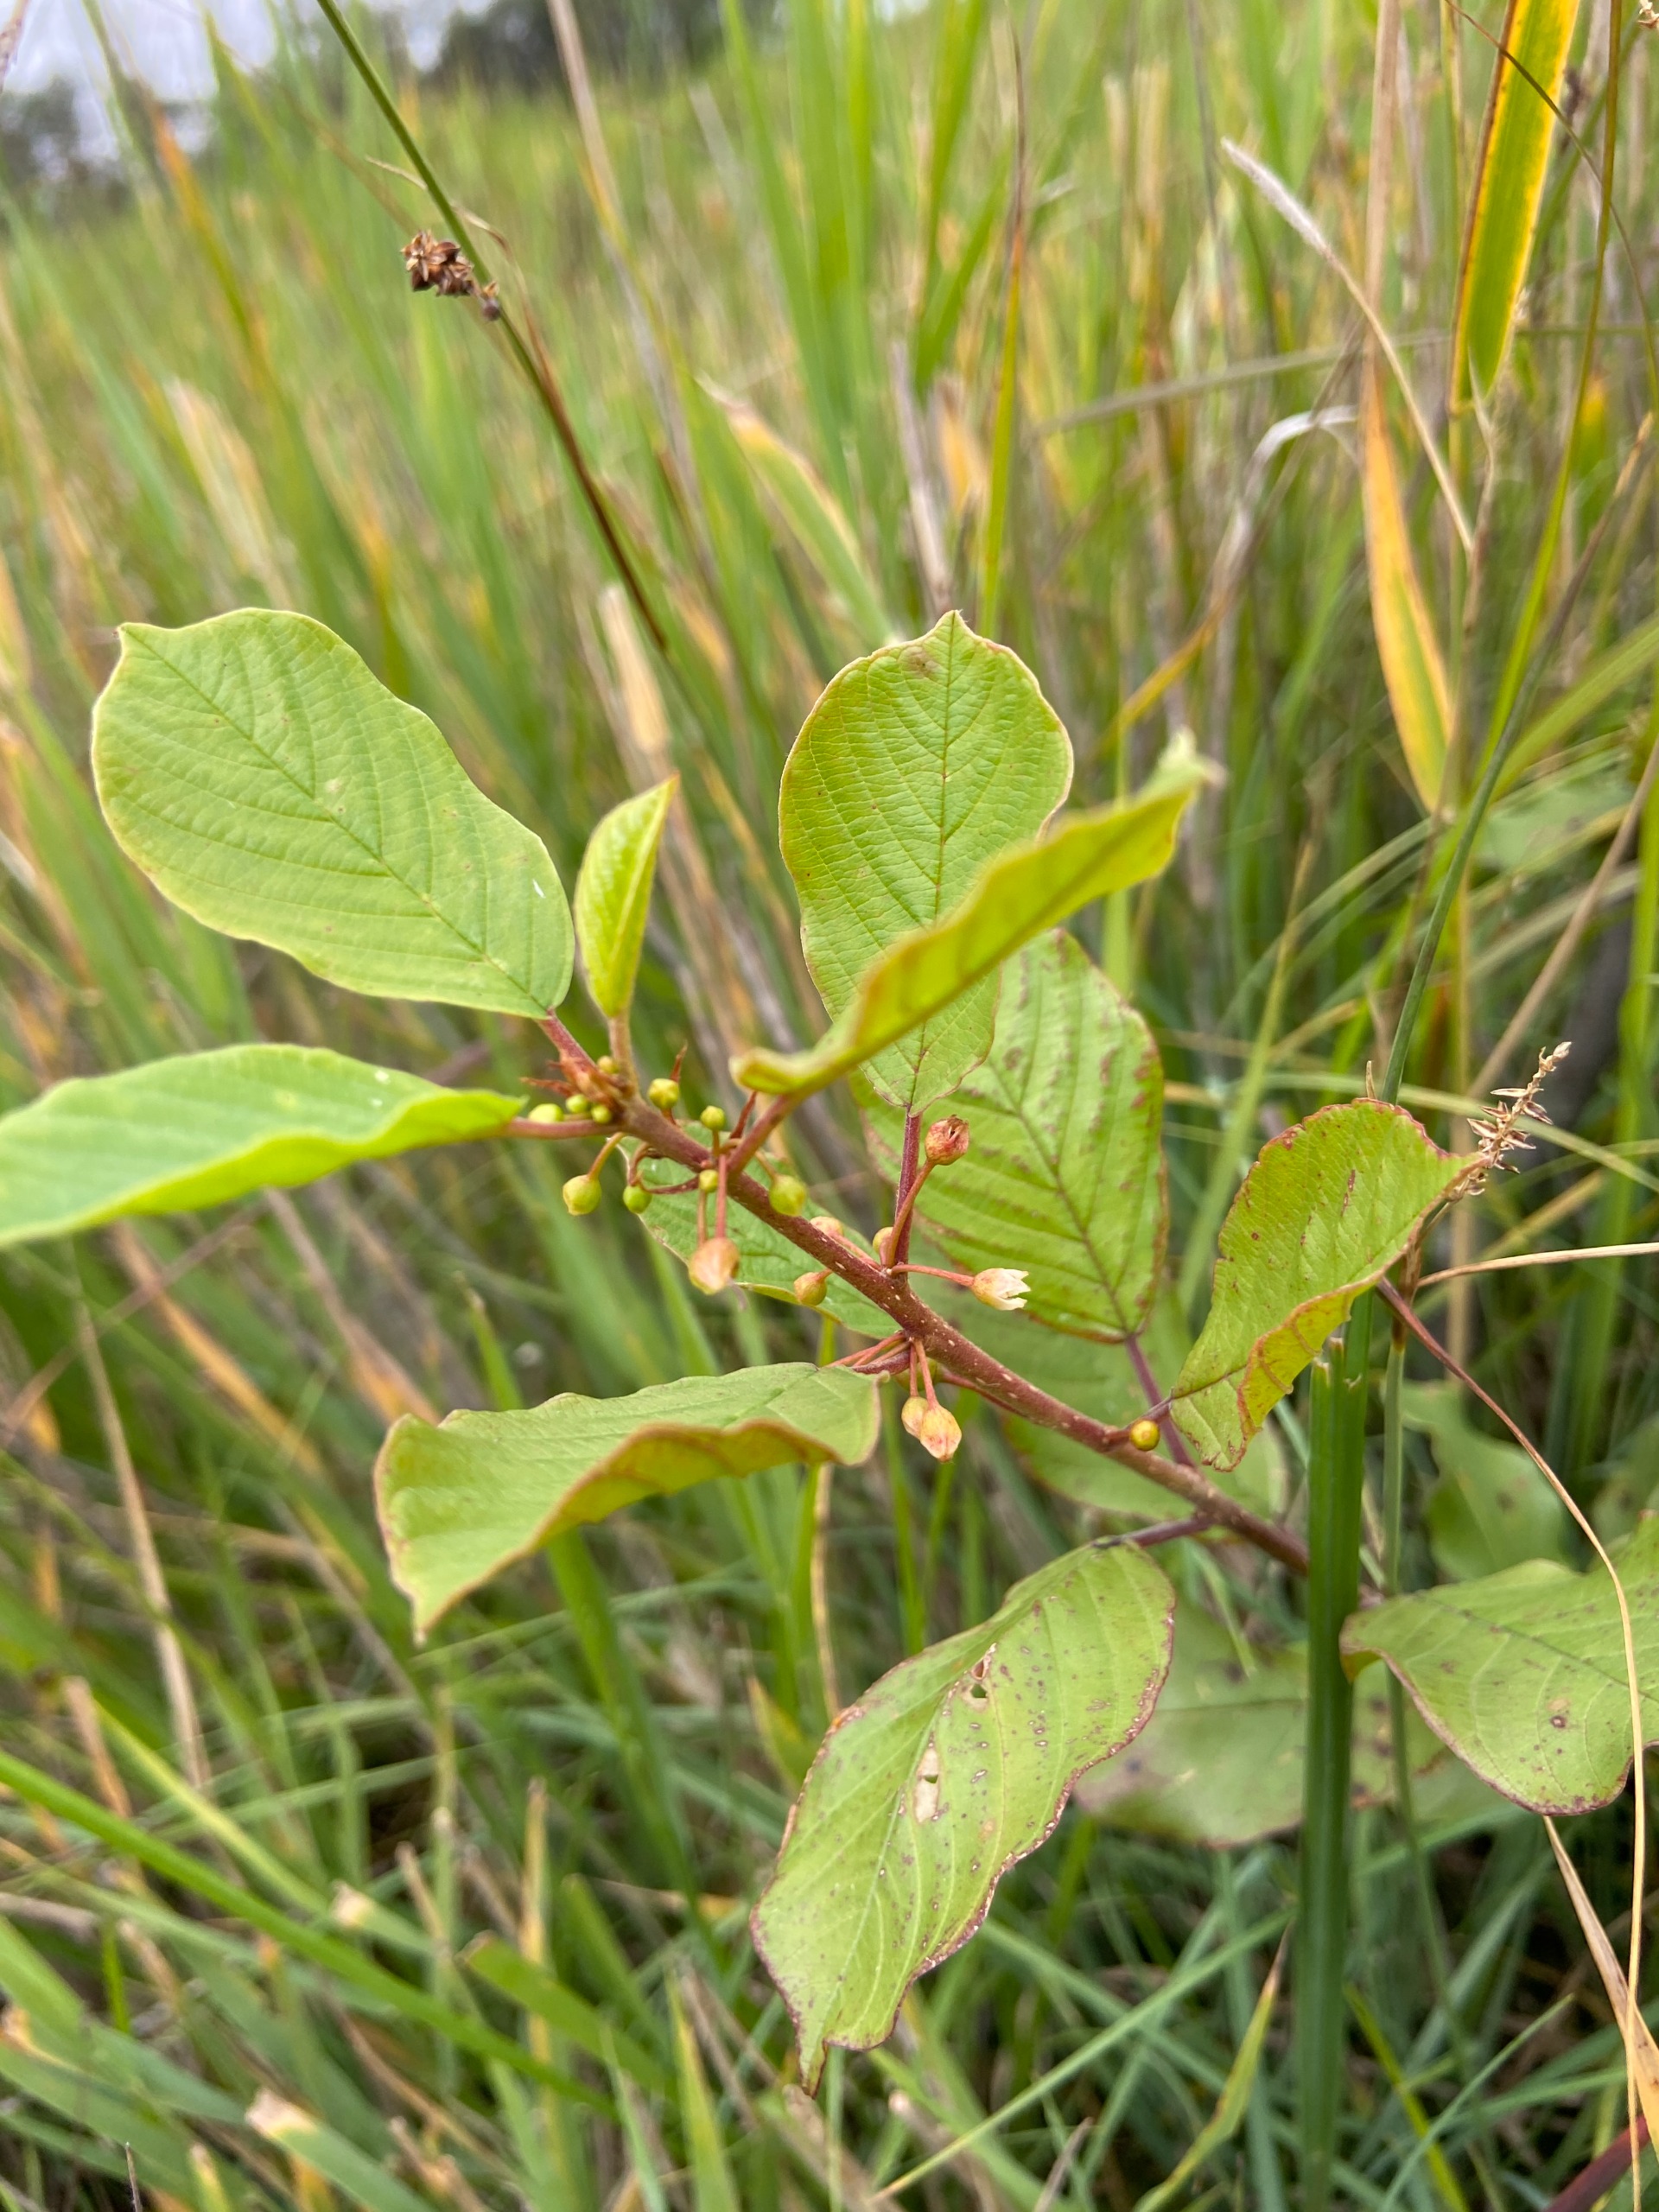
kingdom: Plantae
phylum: Tracheophyta
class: Magnoliopsida
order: Rosales
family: Rhamnaceae
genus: Frangula
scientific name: Frangula alnus
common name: Tørst
